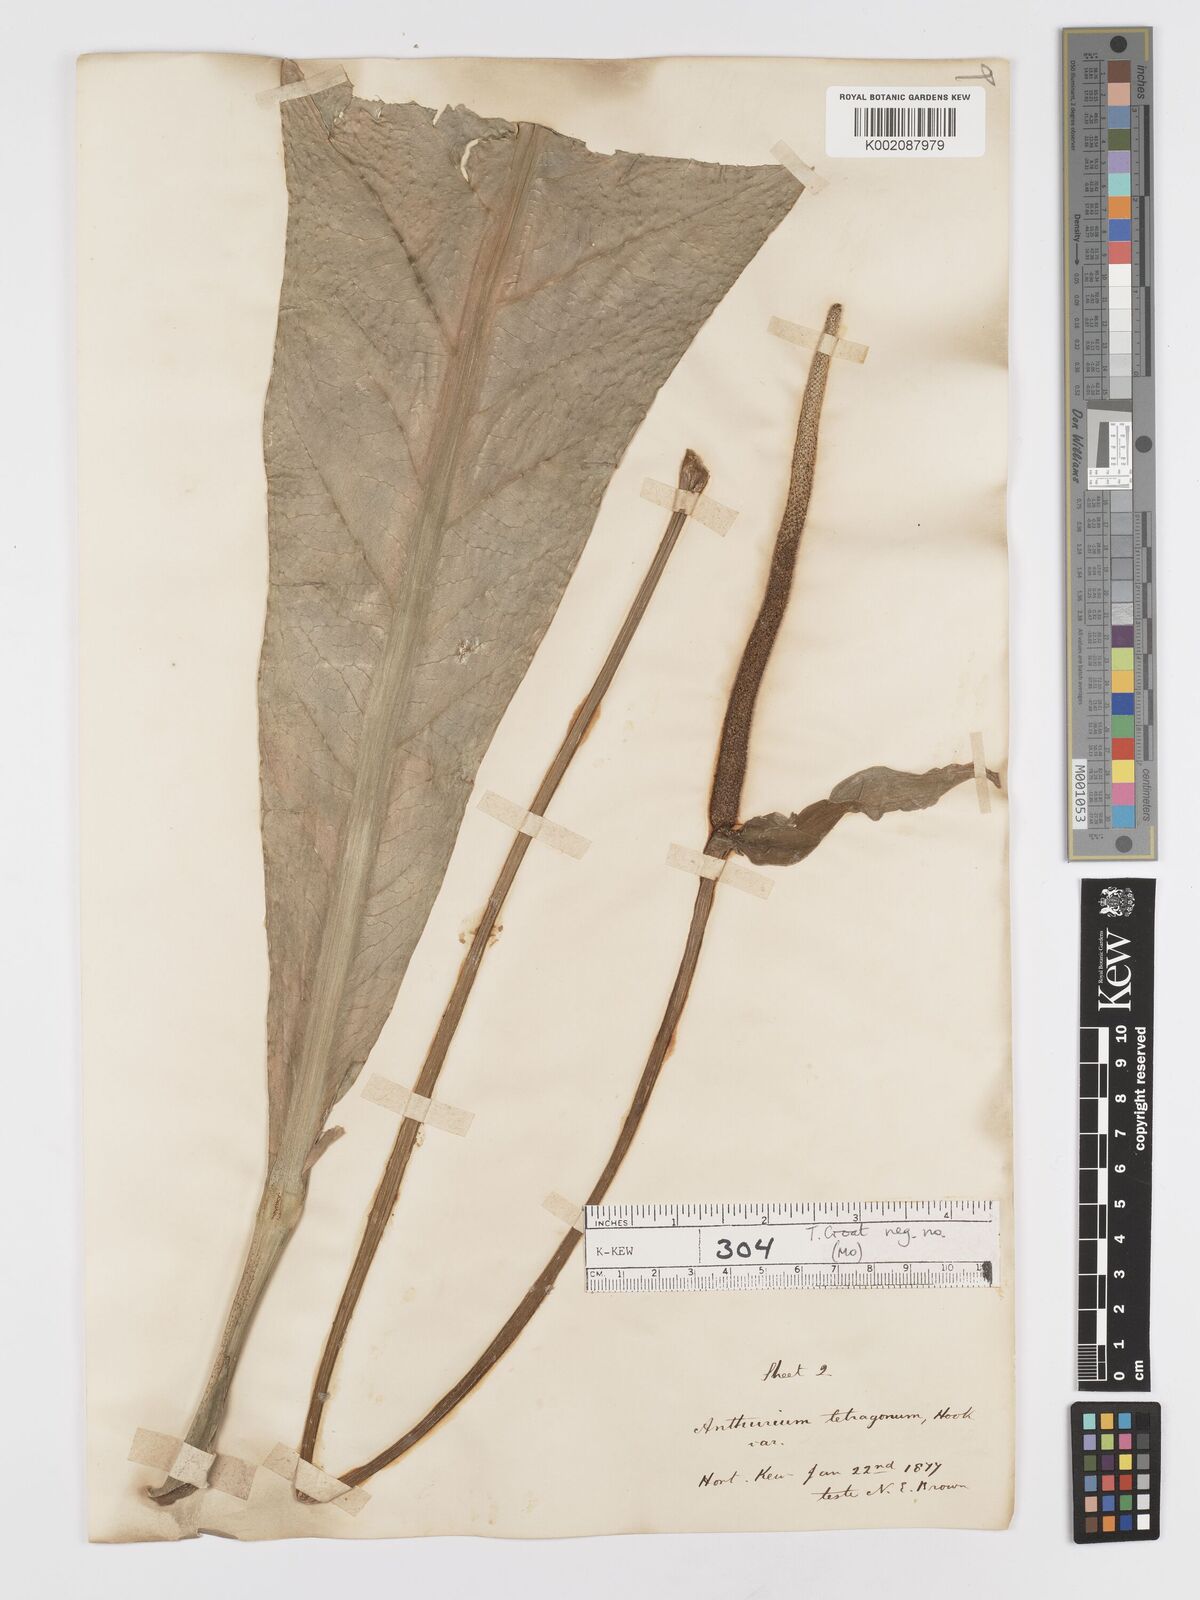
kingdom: Plantae
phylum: Tracheophyta
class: Liliopsida
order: Alismatales
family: Araceae
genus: Anthurium
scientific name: Anthurium schlechtendalii
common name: Laceleaf
